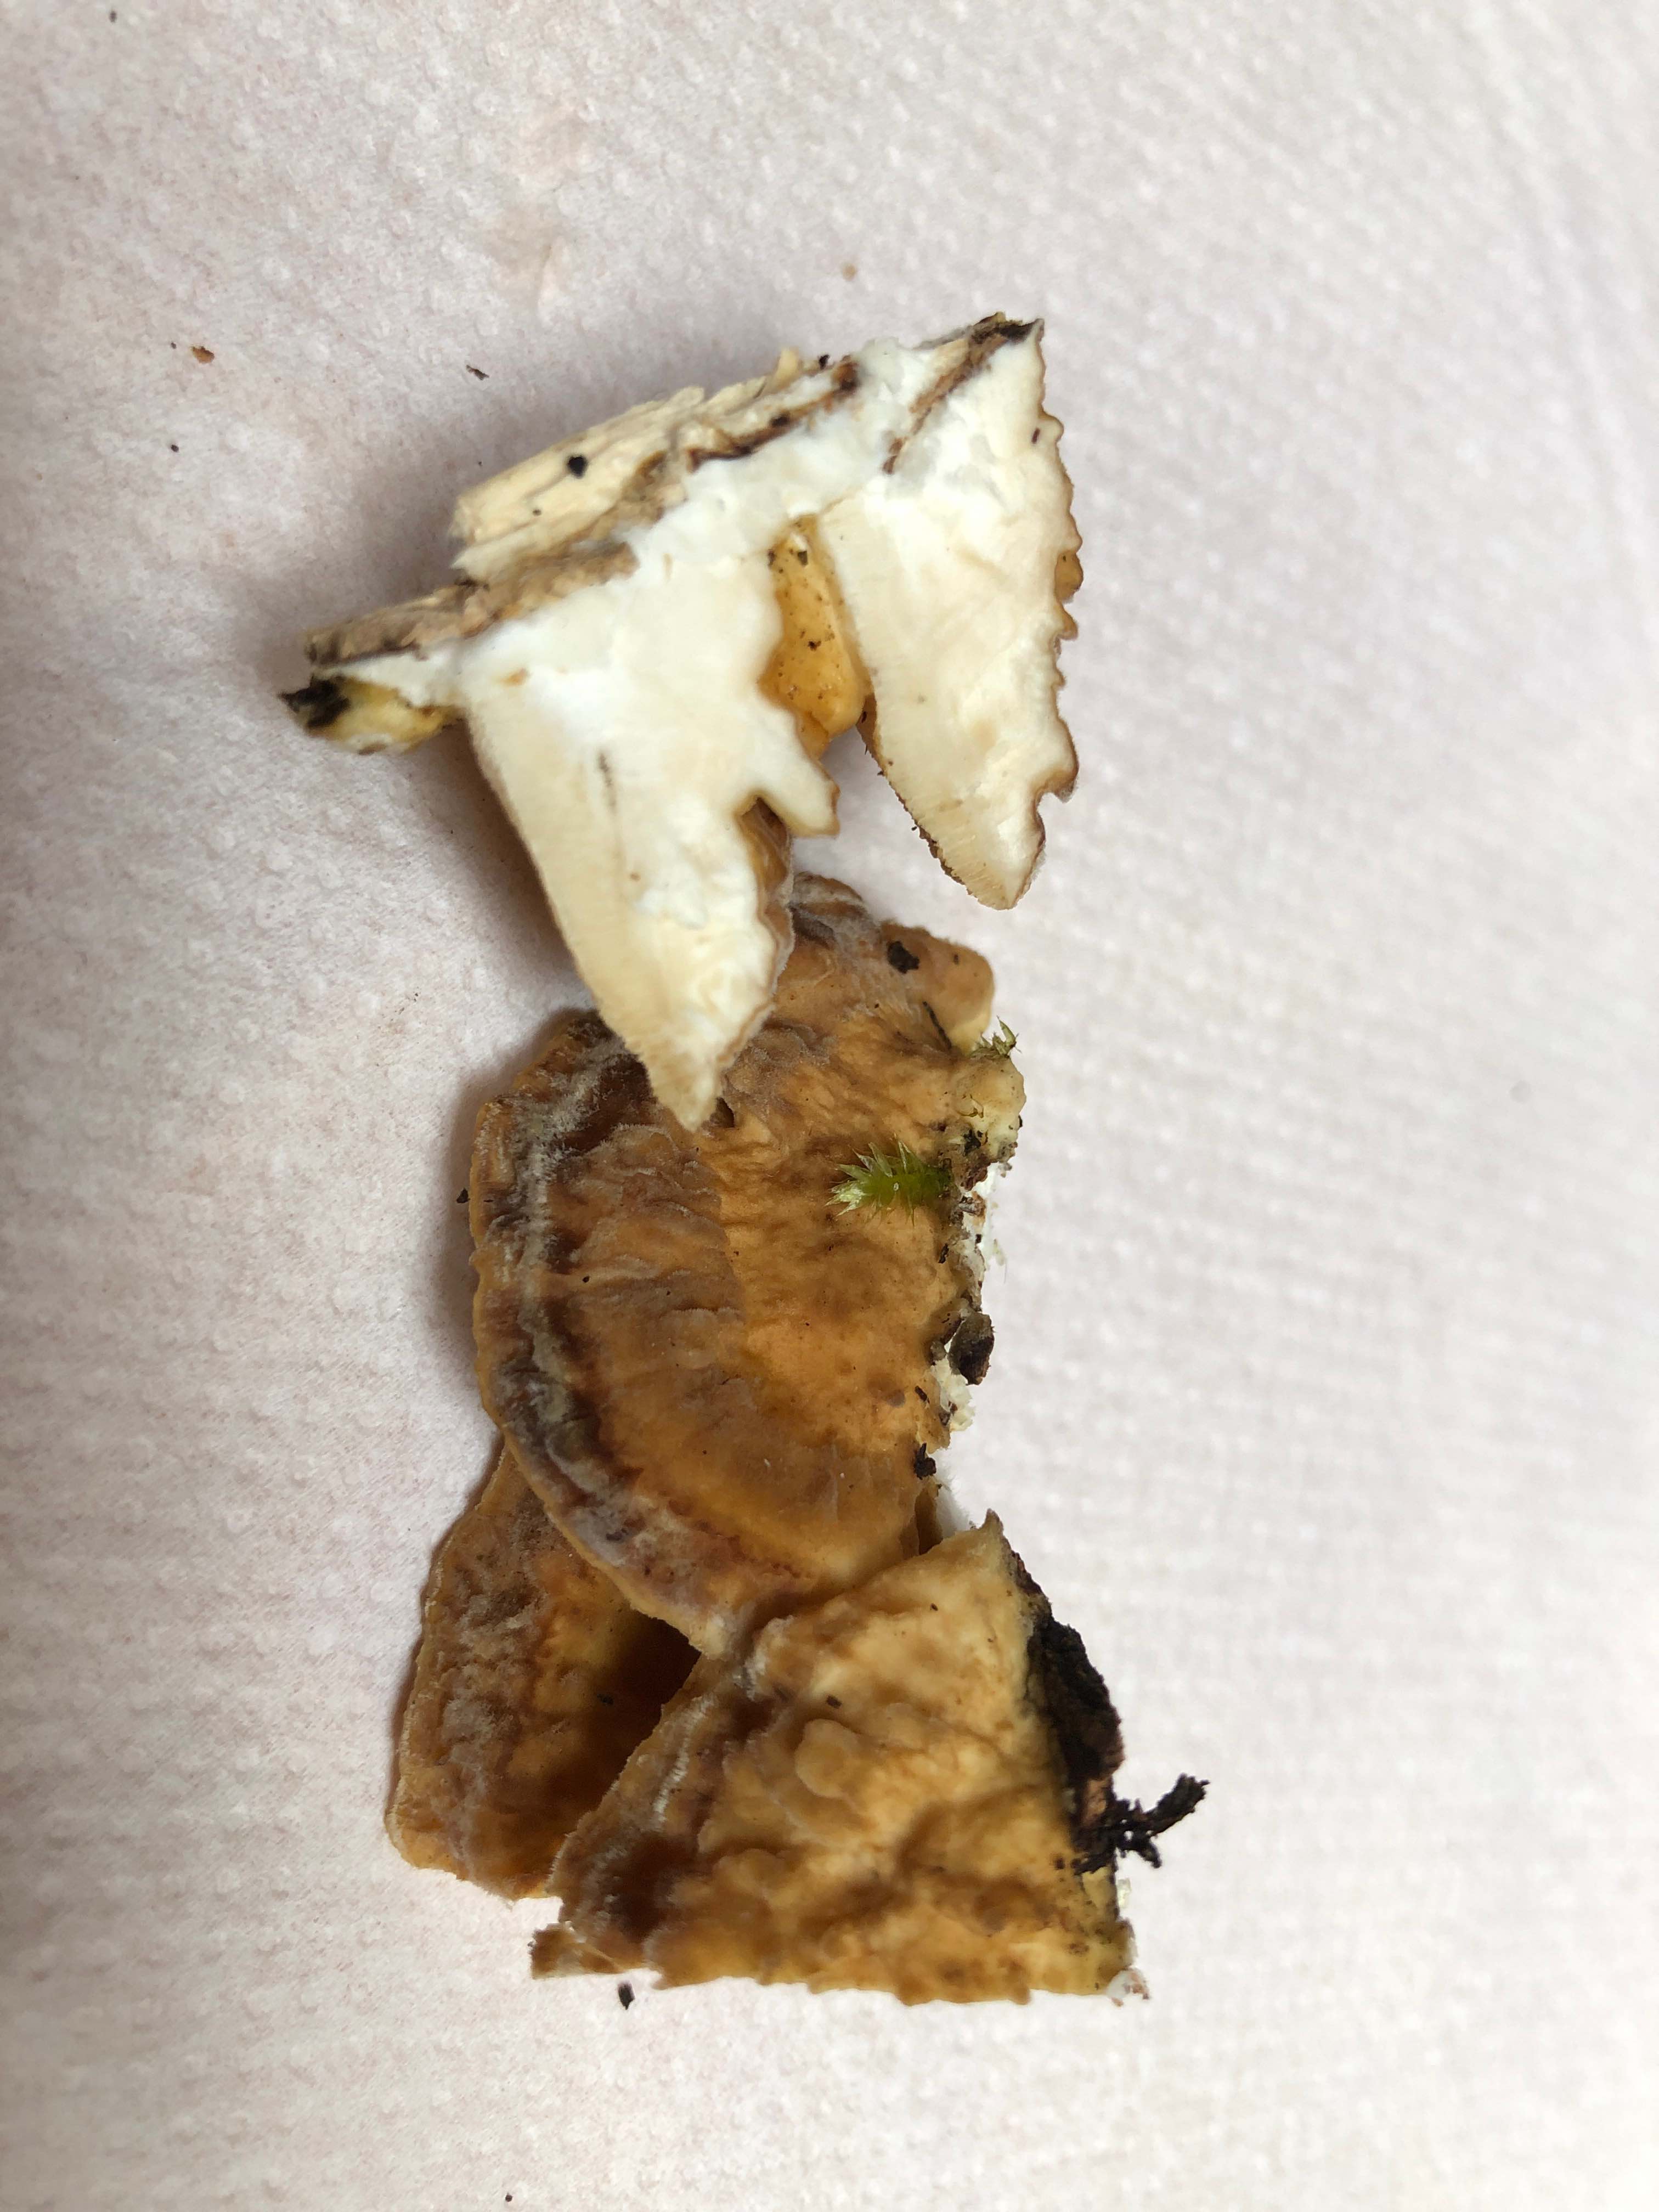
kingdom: Fungi
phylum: Basidiomycota
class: Agaricomycetes
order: Polyporales
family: Polyporaceae
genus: Trametes
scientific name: Trametes ochracea
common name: bæltet læderporesvamp
